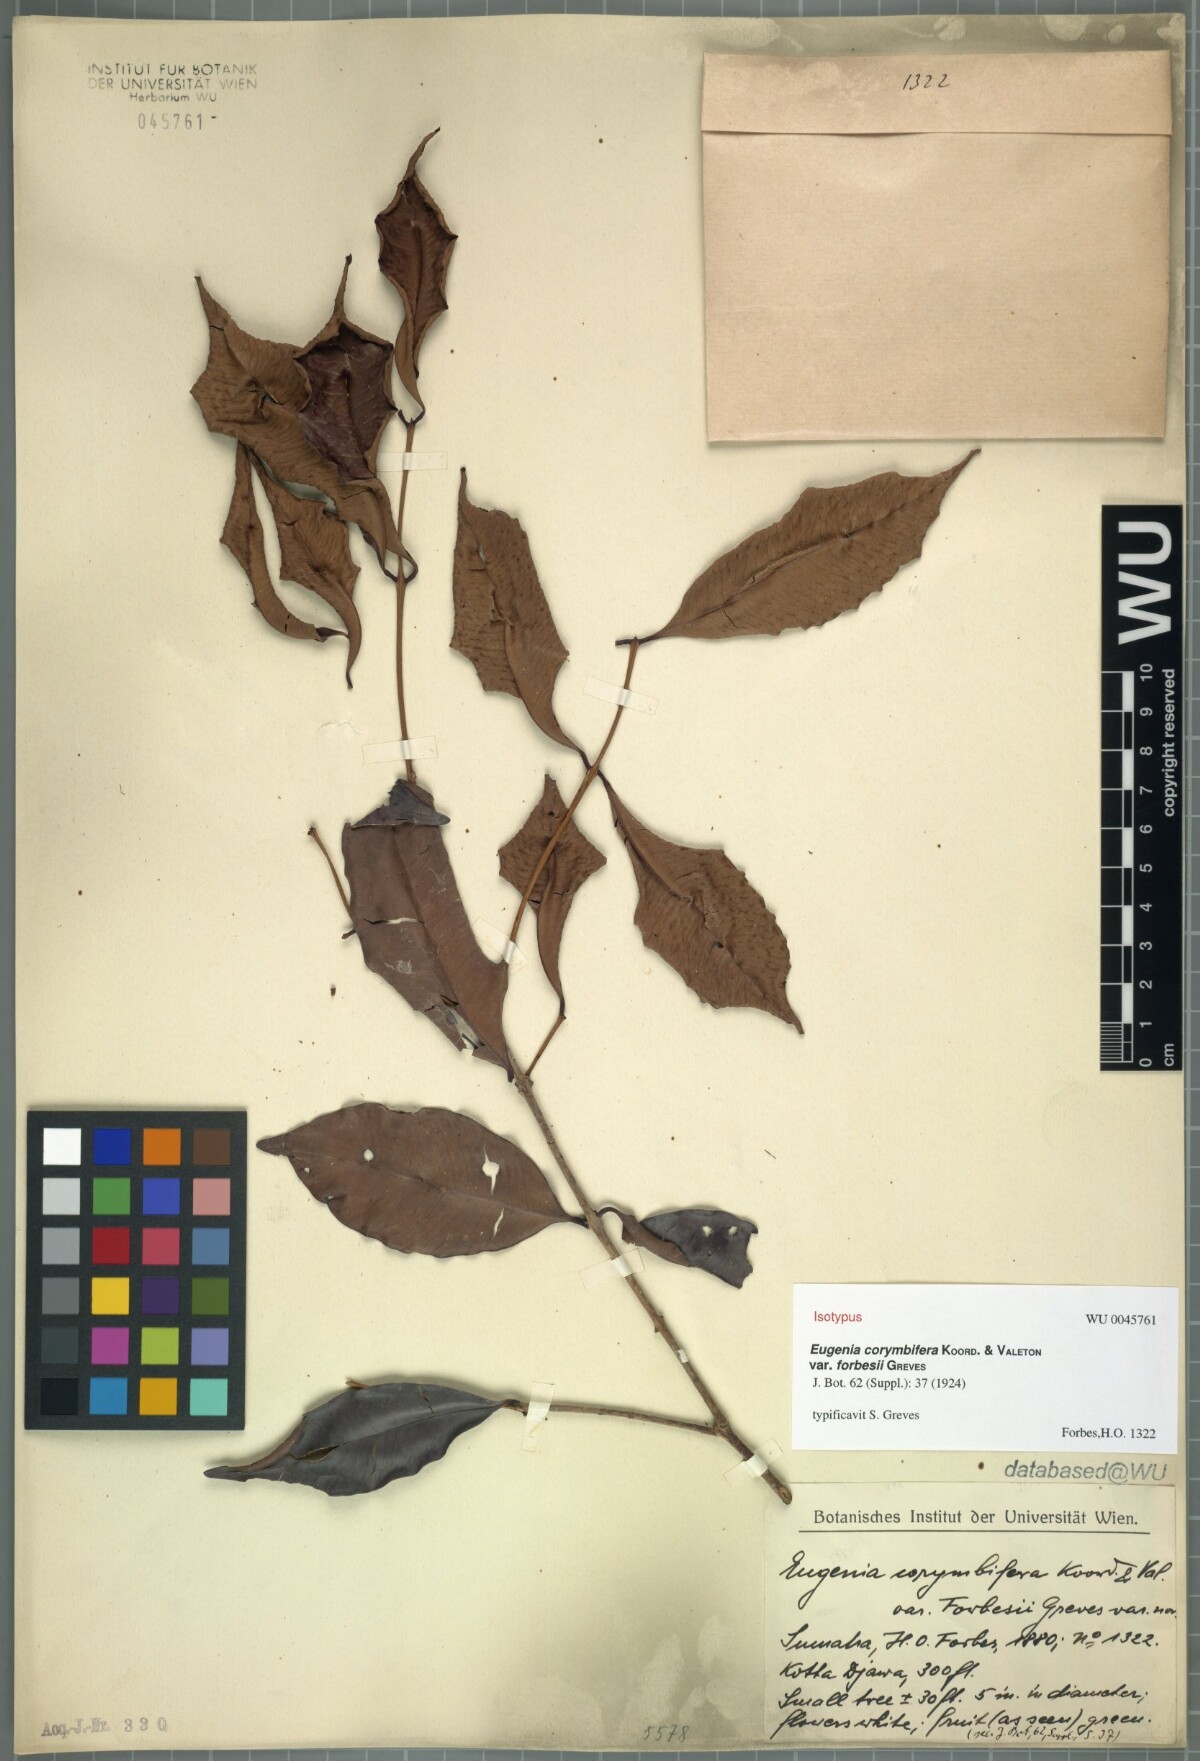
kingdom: Plantae
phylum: Tracheophyta
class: Magnoliopsida
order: Myrtales
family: Myrtaceae
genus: Syzygium
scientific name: Syzygium corymbosum
